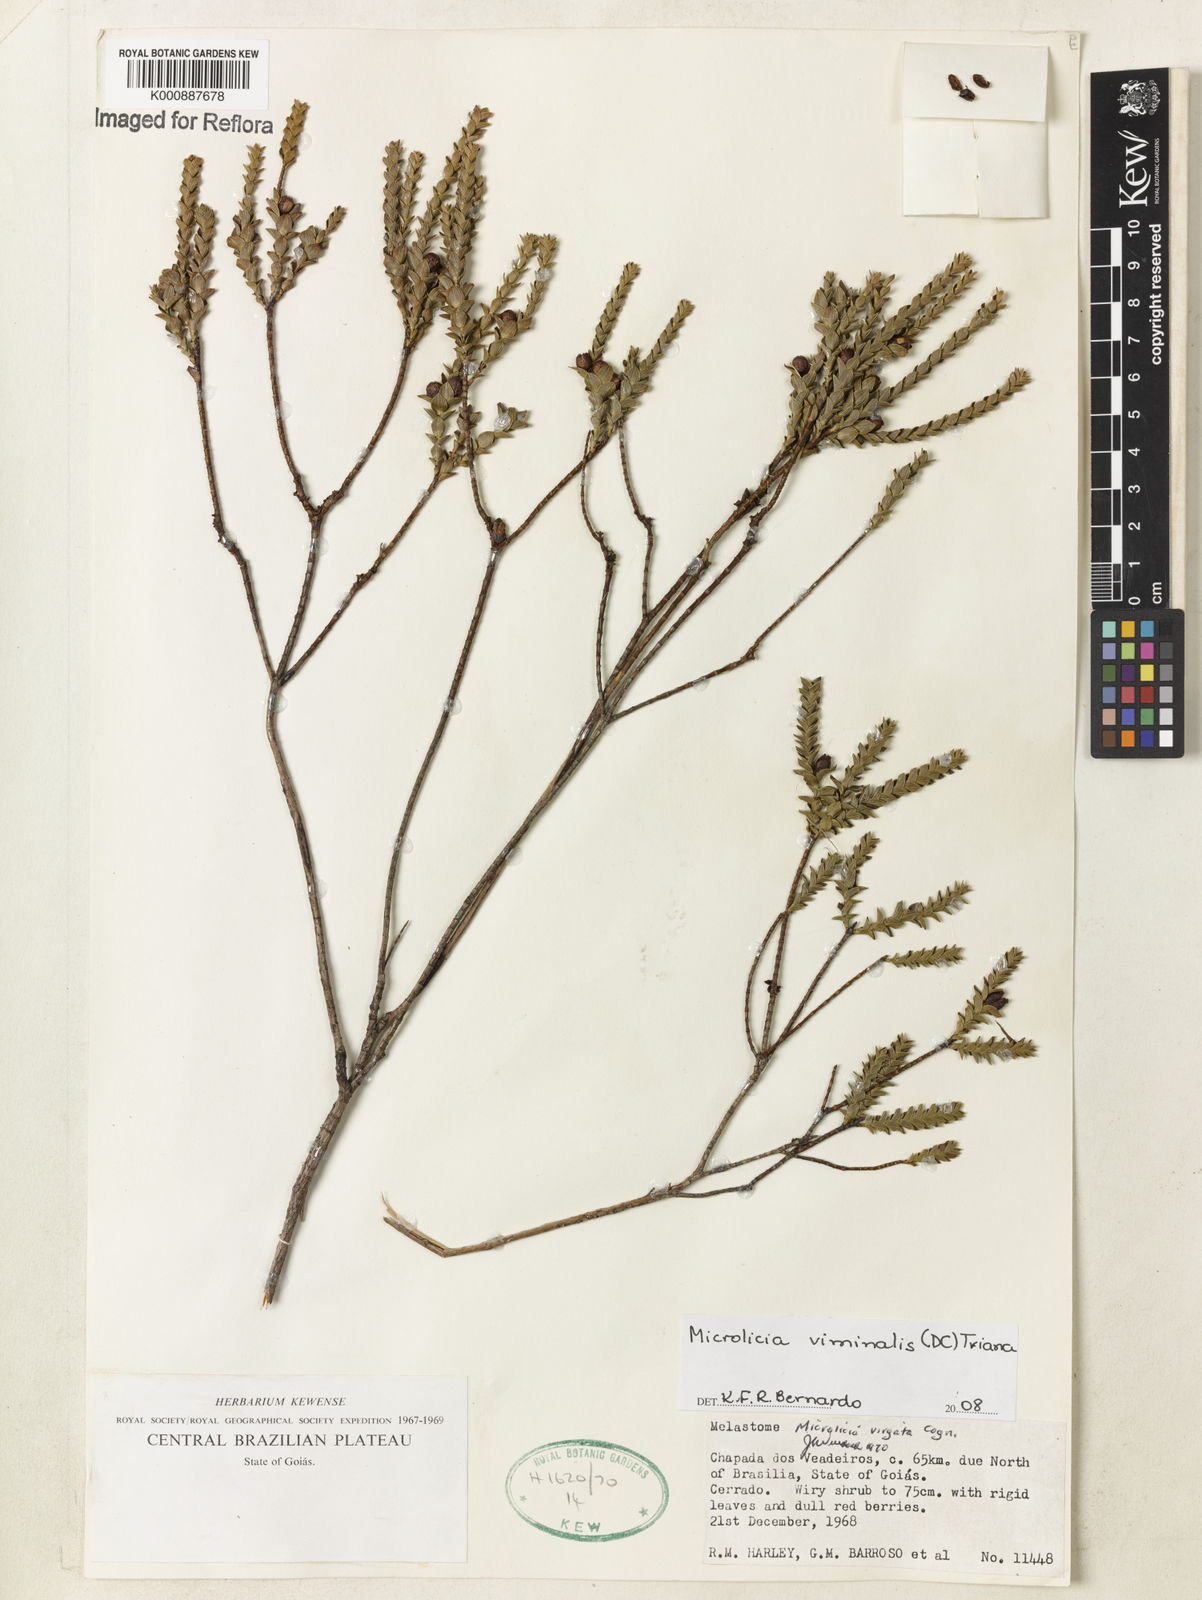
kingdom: Plantae
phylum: Tracheophyta
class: Magnoliopsida
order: Myrtales
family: Melastomataceae
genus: Microlicia
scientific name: Microlicia viminalis
